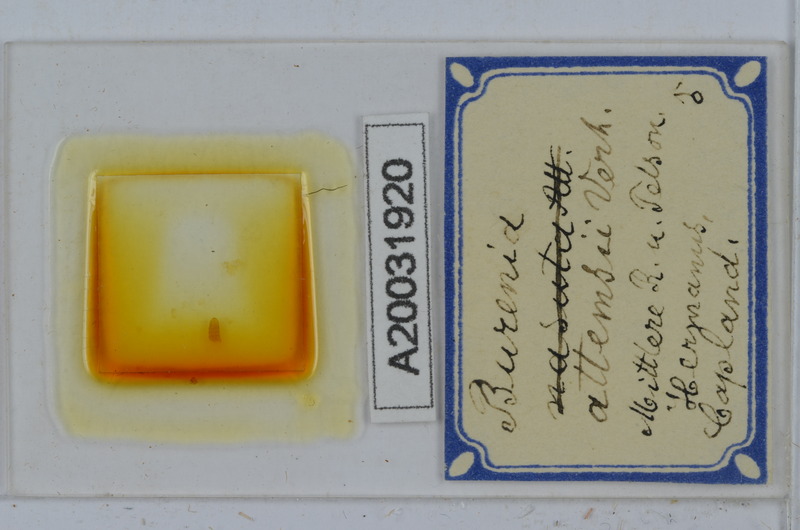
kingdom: Animalia
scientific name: Animalia
